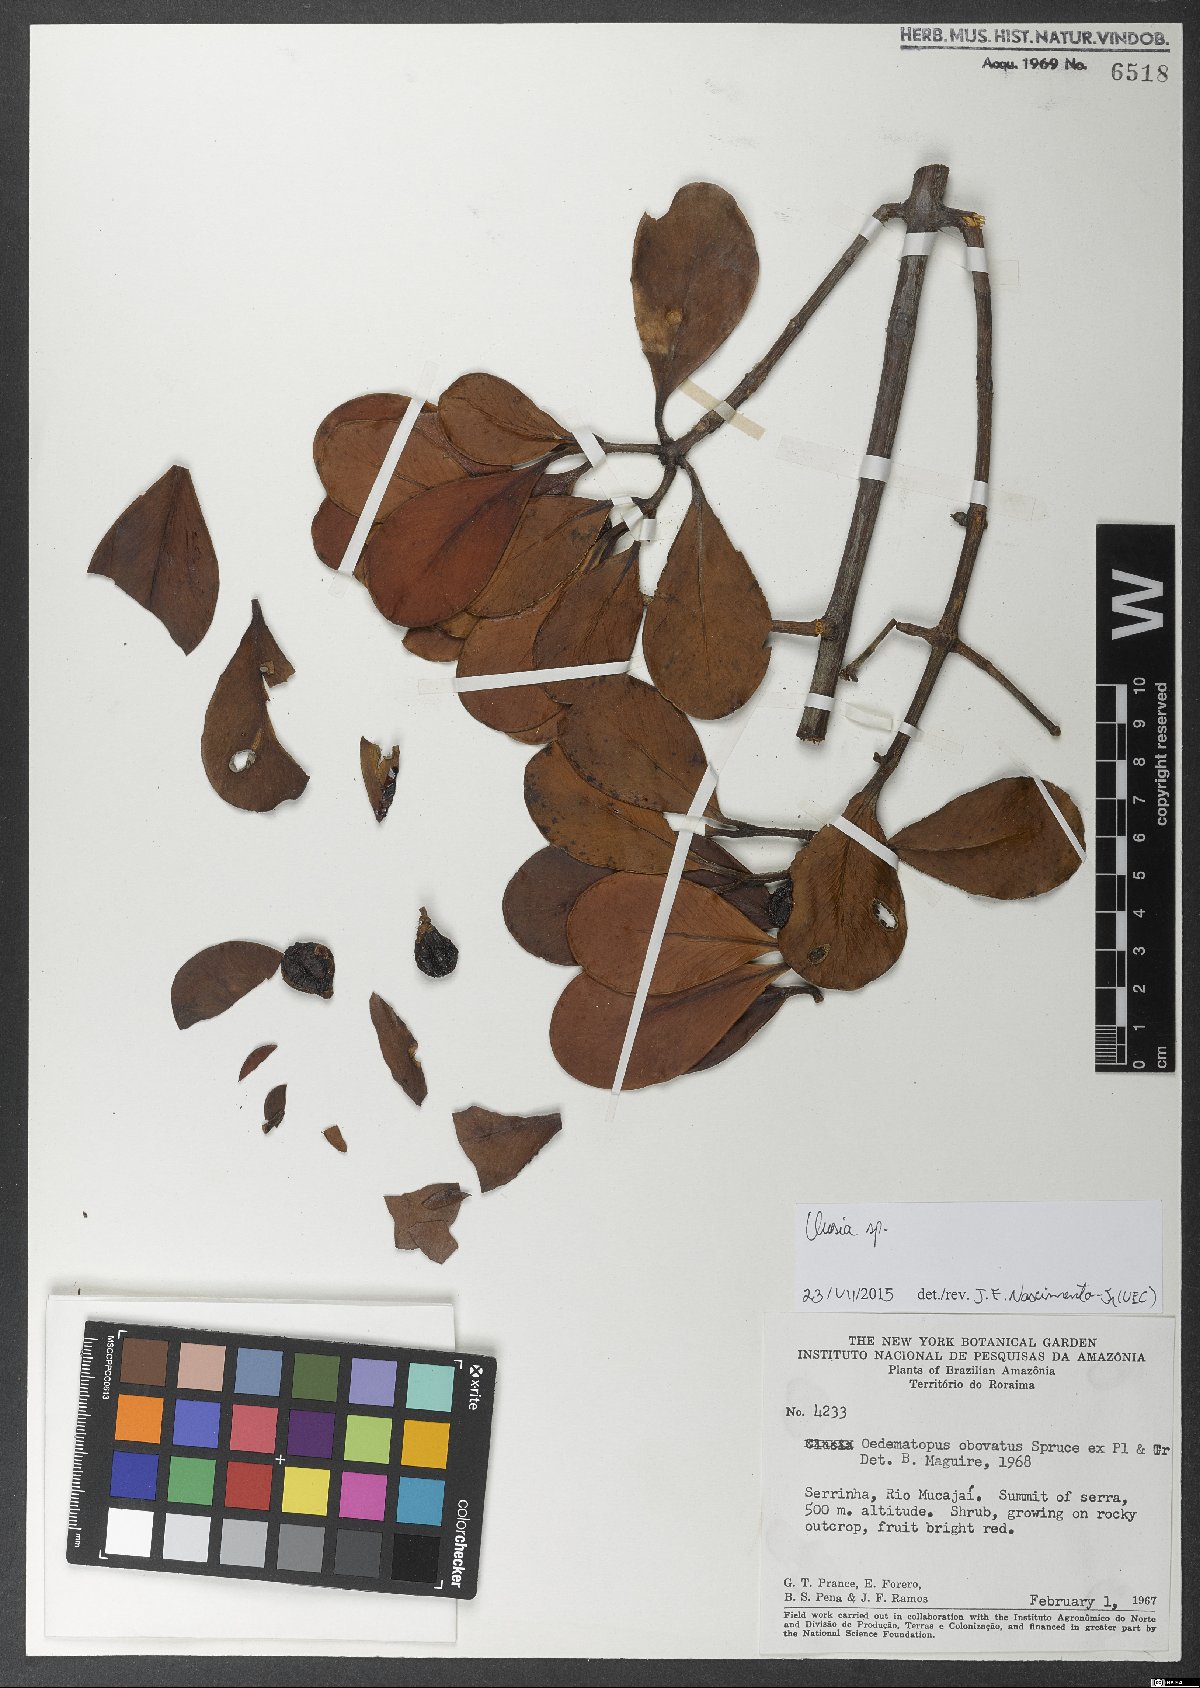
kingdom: Plantae
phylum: Tracheophyta
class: Magnoliopsida
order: Malpighiales
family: Clusiaceae
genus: Clusia
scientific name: Clusia
